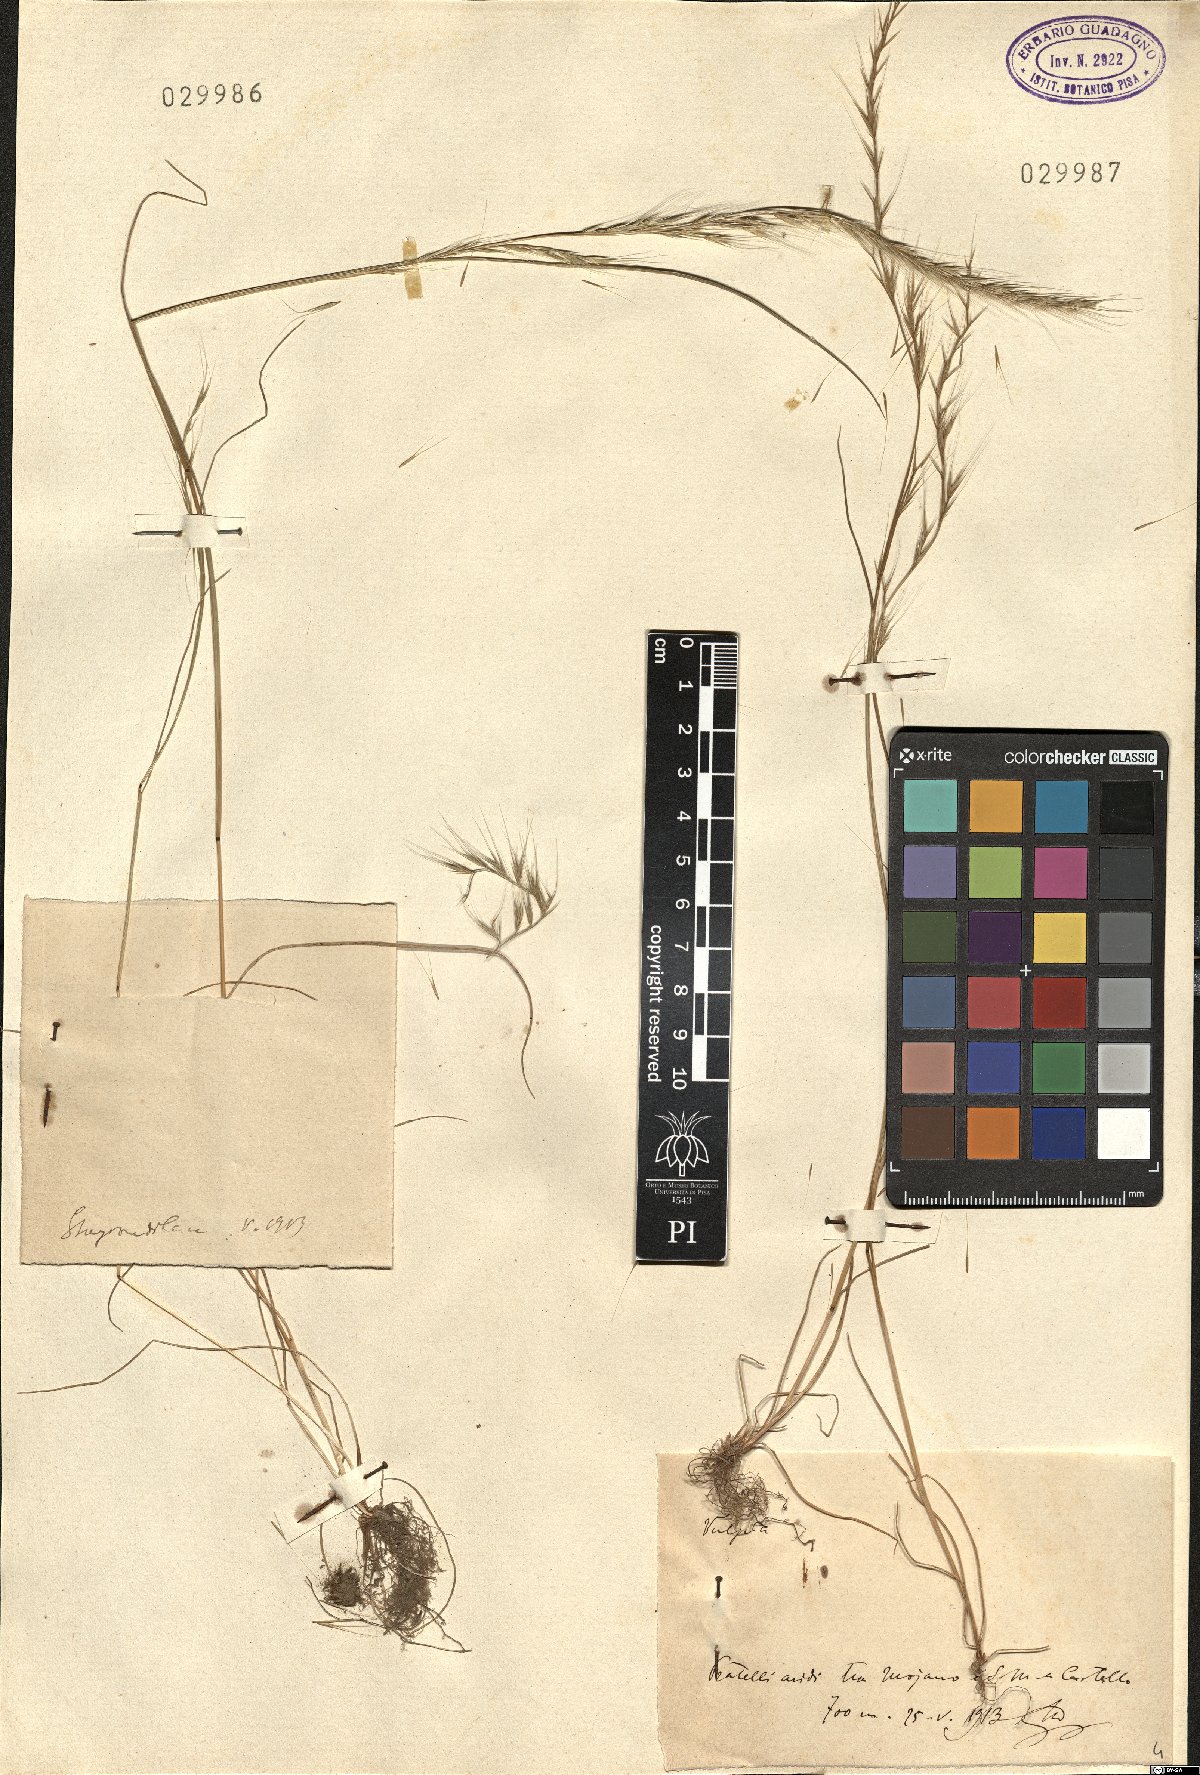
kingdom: Plantae
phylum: Tracheophyta
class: Liliopsida
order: Poales
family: Poaceae
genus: Festuca
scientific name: Festuca
